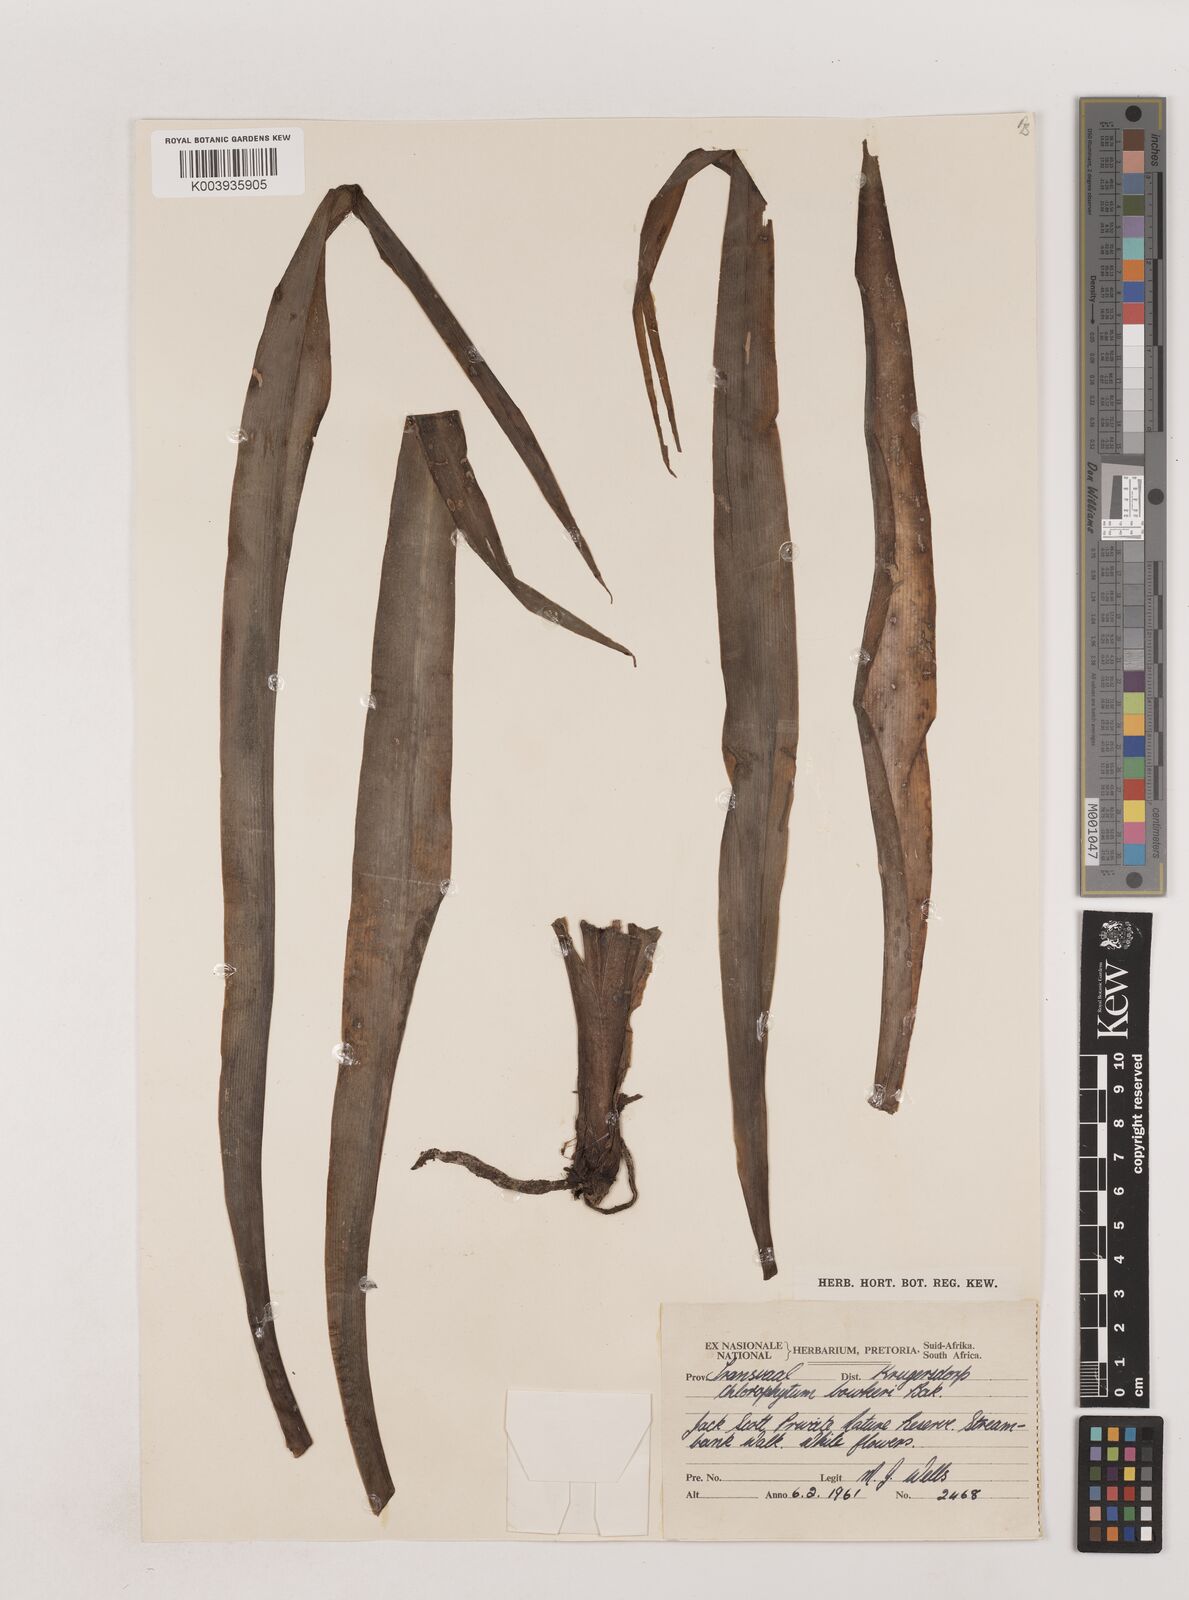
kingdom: Plantae
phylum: Tracheophyta
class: Liliopsida
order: Asparagales
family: Asparagaceae
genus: Chlorophytum
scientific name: Chlorophytum bowkeri
